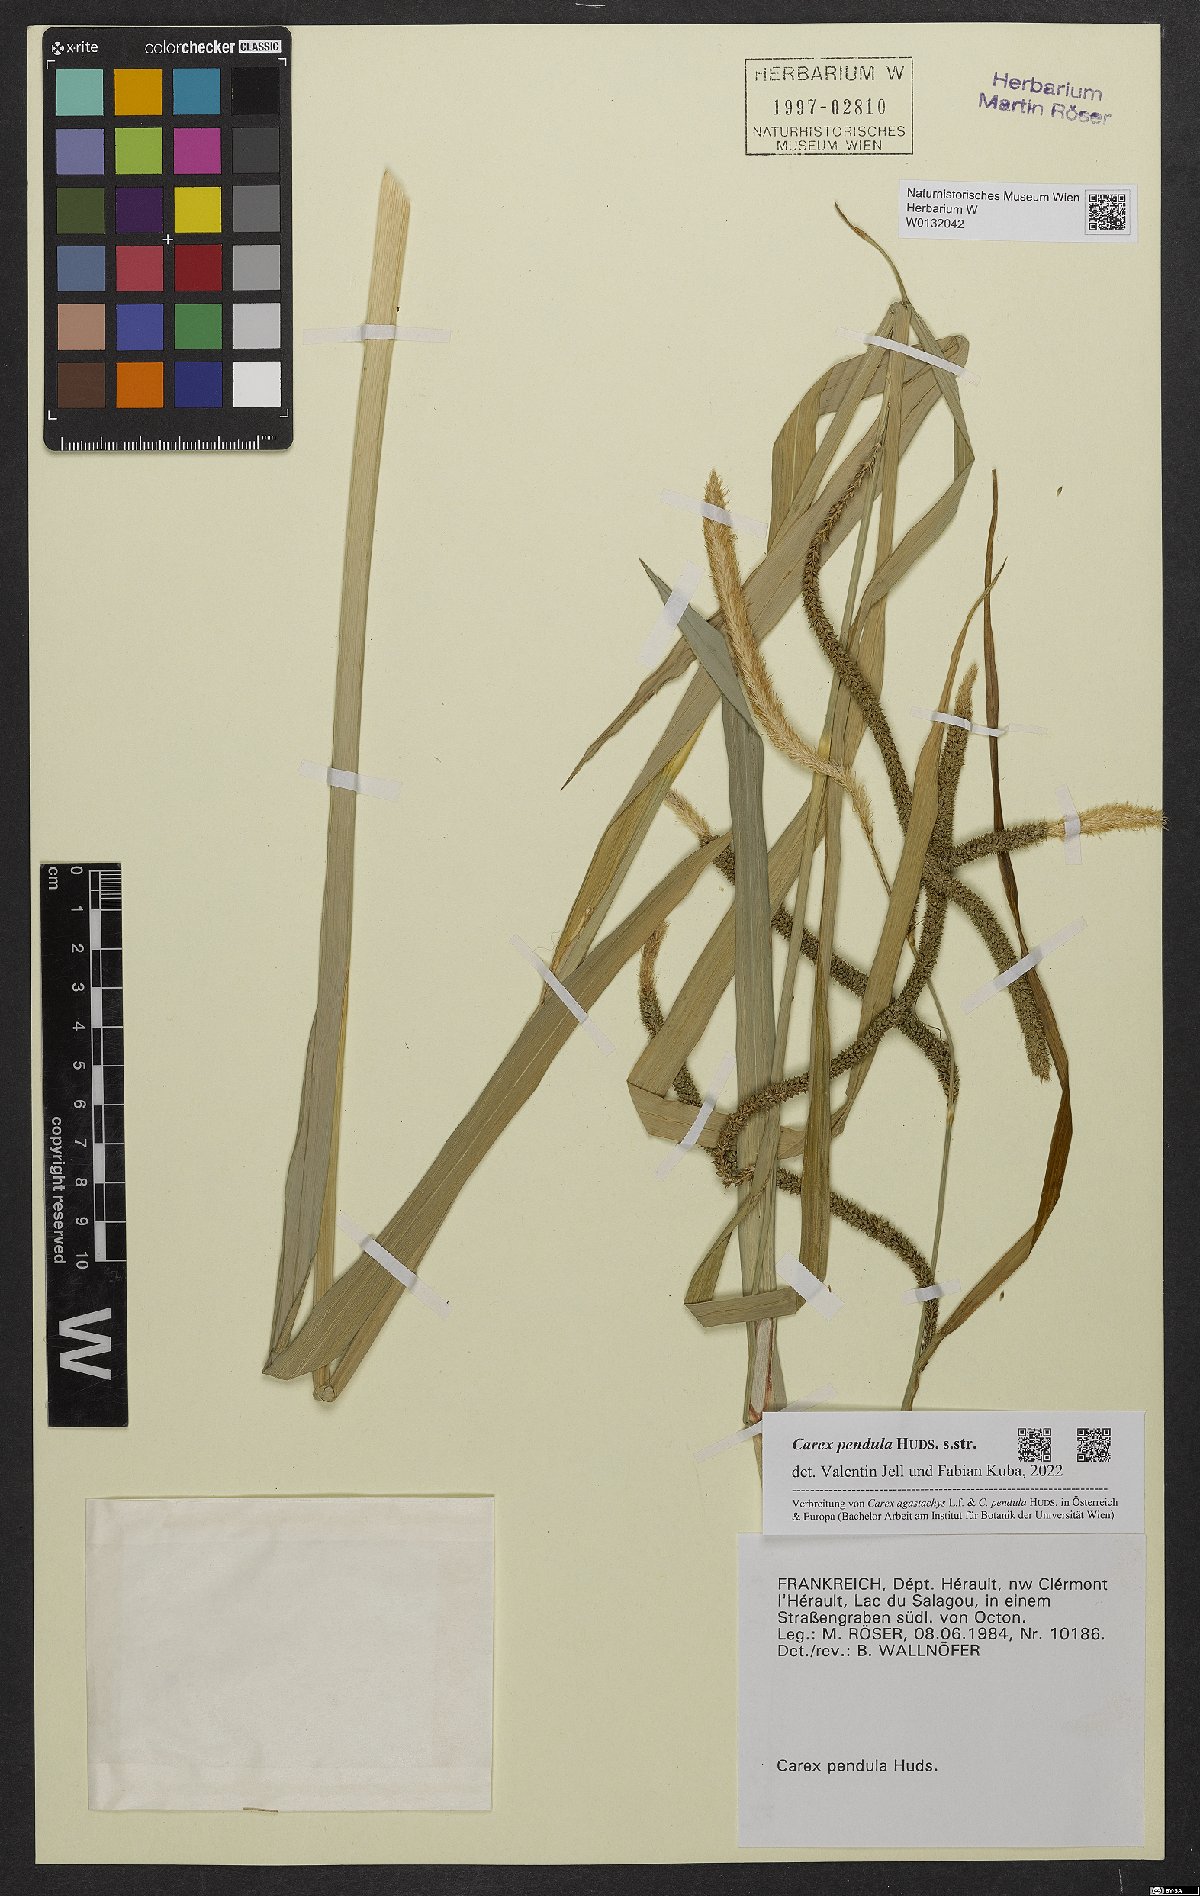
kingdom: Plantae
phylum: Tracheophyta
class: Liliopsida
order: Poales
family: Cyperaceae
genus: Carex
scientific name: Carex pendula
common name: Pendulous sedge
